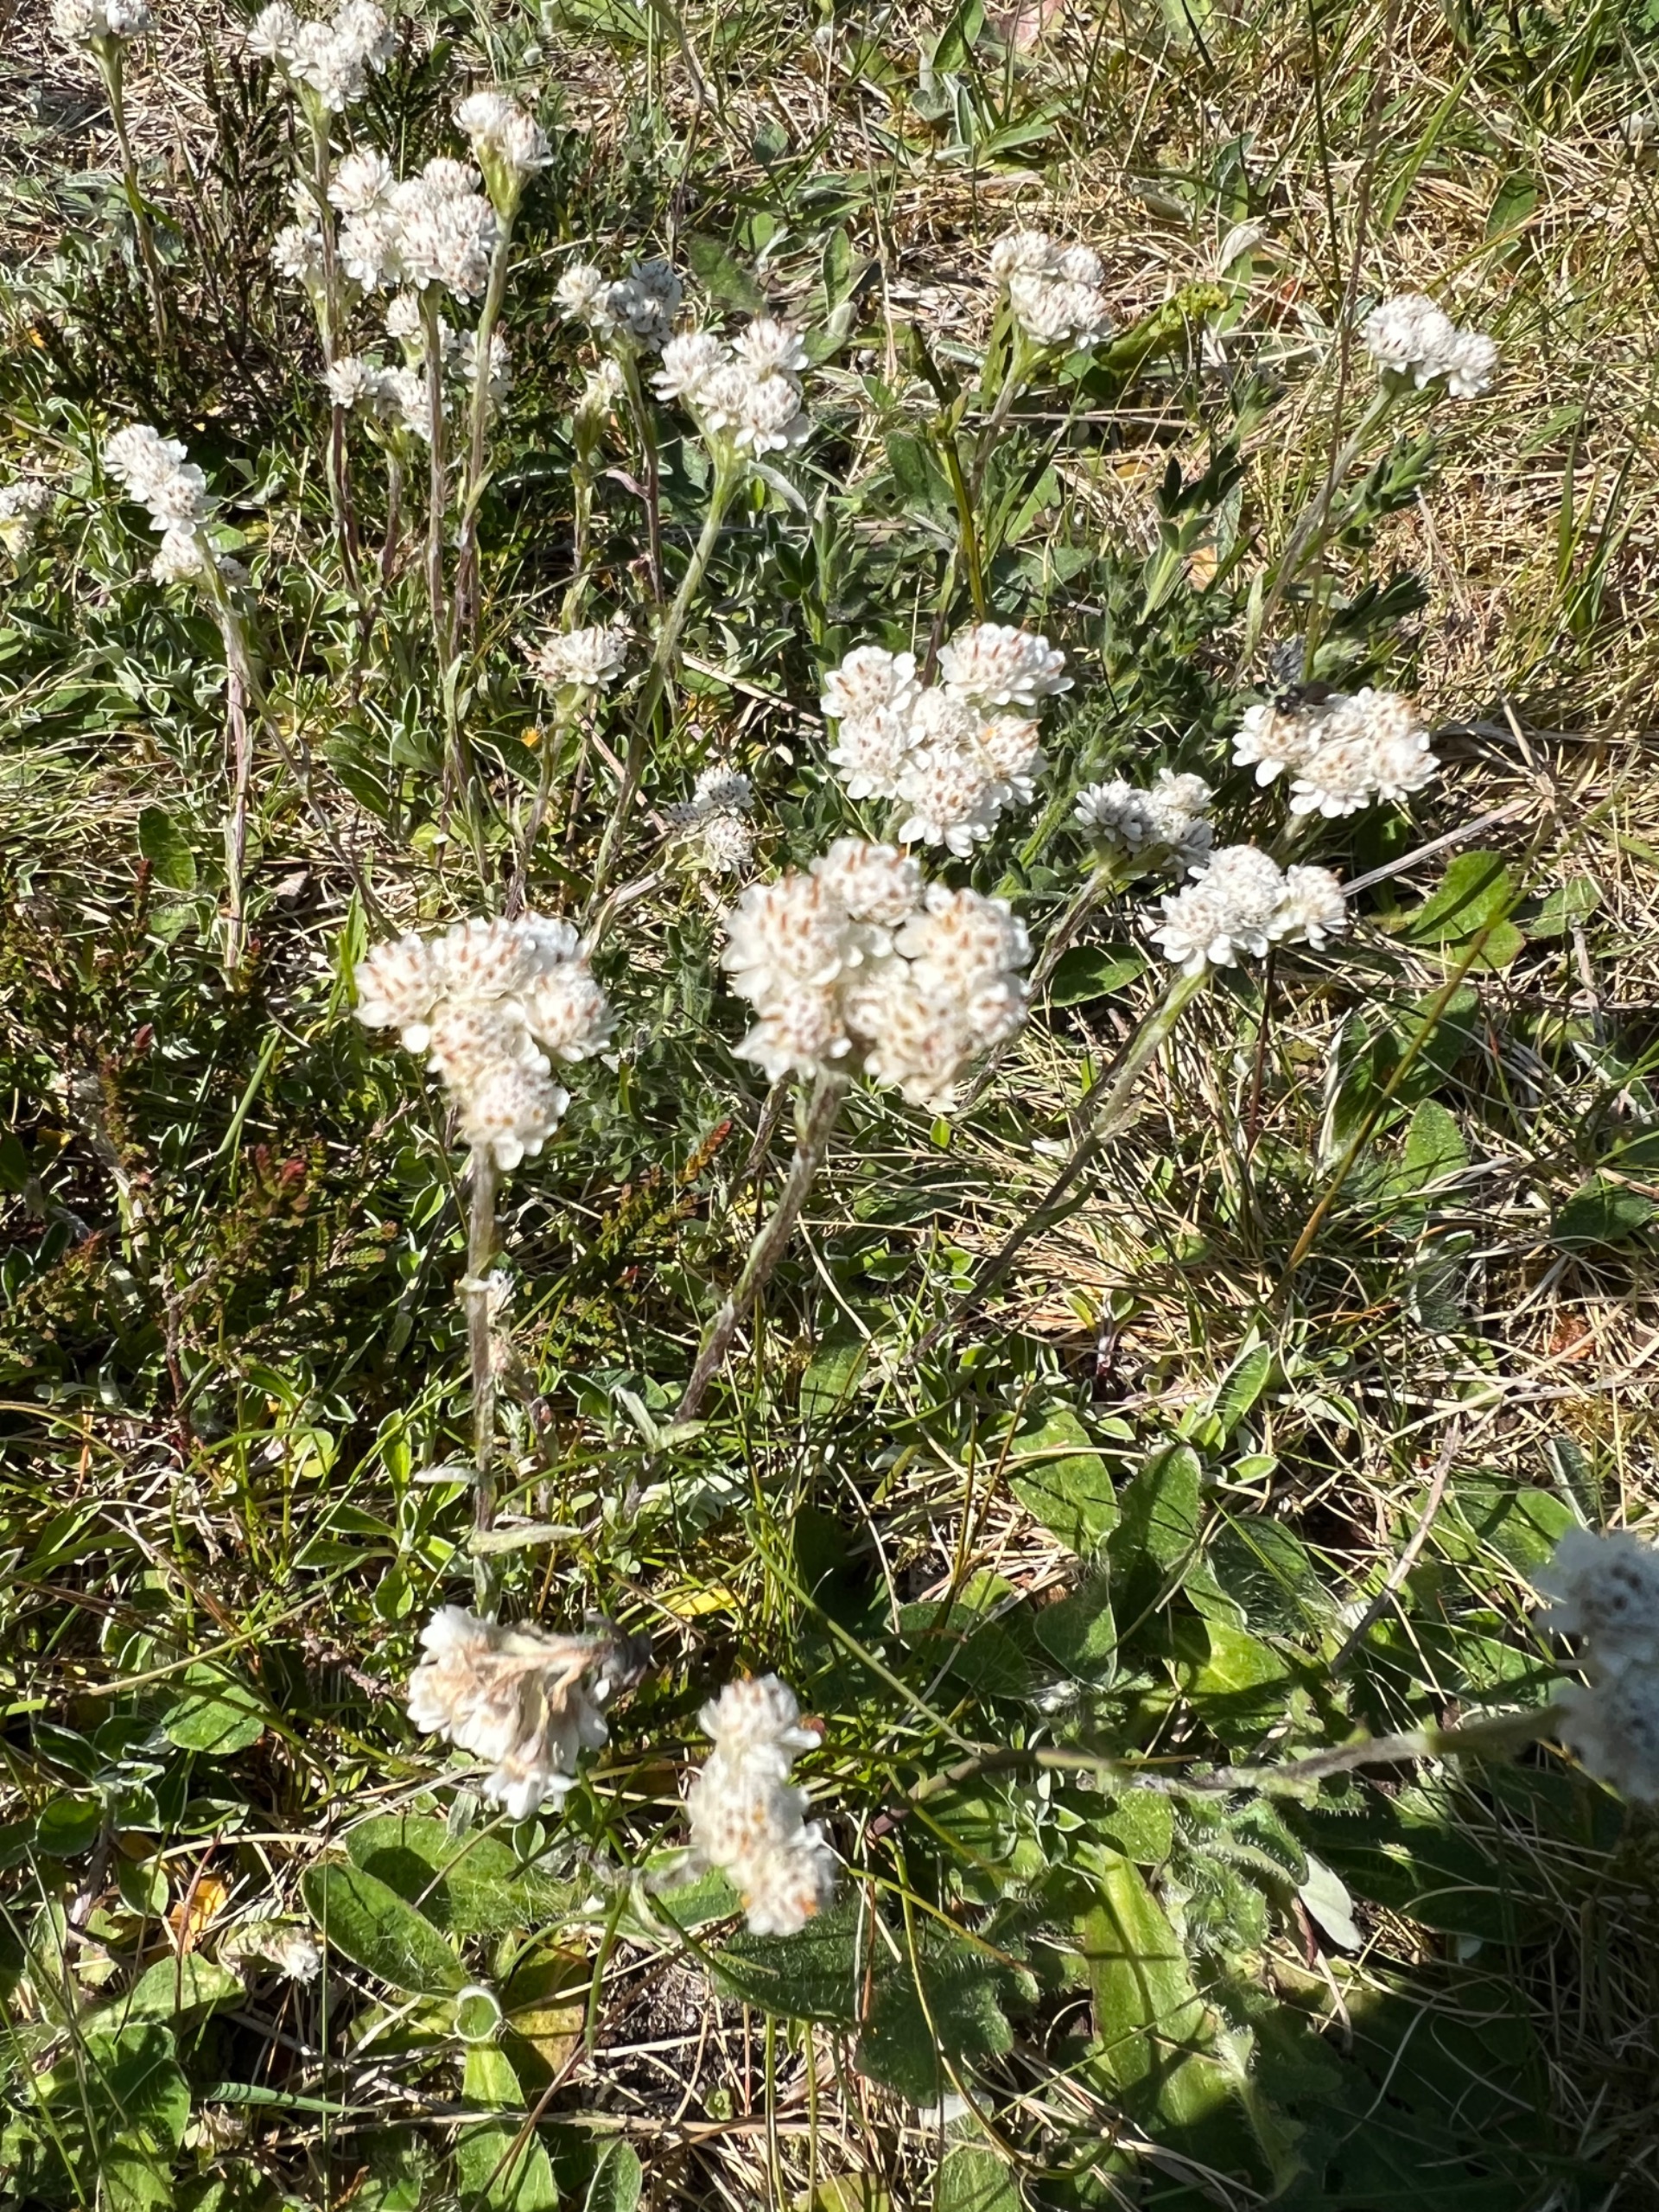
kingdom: Plantae
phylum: Tracheophyta
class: Magnoliopsida
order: Asterales
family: Asteraceae
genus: Antennaria
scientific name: Antennaria dioica
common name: Kattefod
